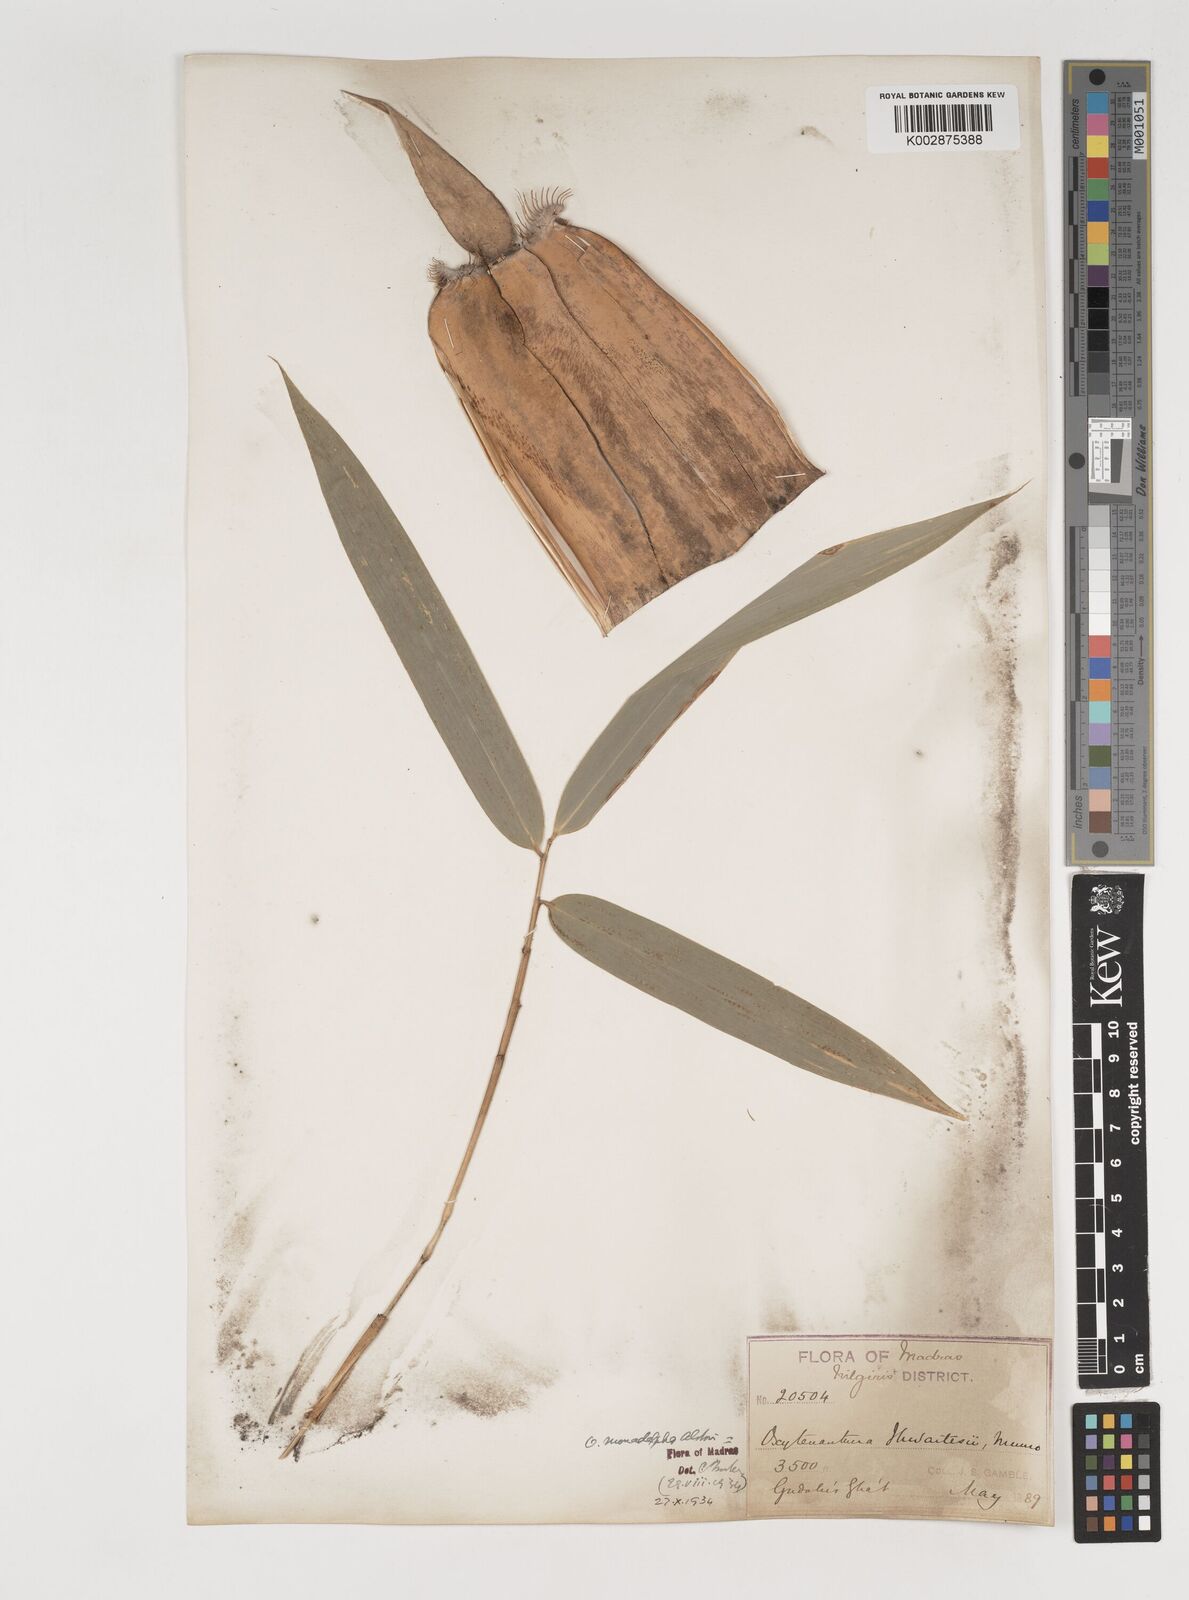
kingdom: Plantae
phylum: Tracheophyta
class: Liliopsida
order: Poales
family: Poaceae
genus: Pseudoxytenanthera
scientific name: Pseudoxytenanthera monadelpha
